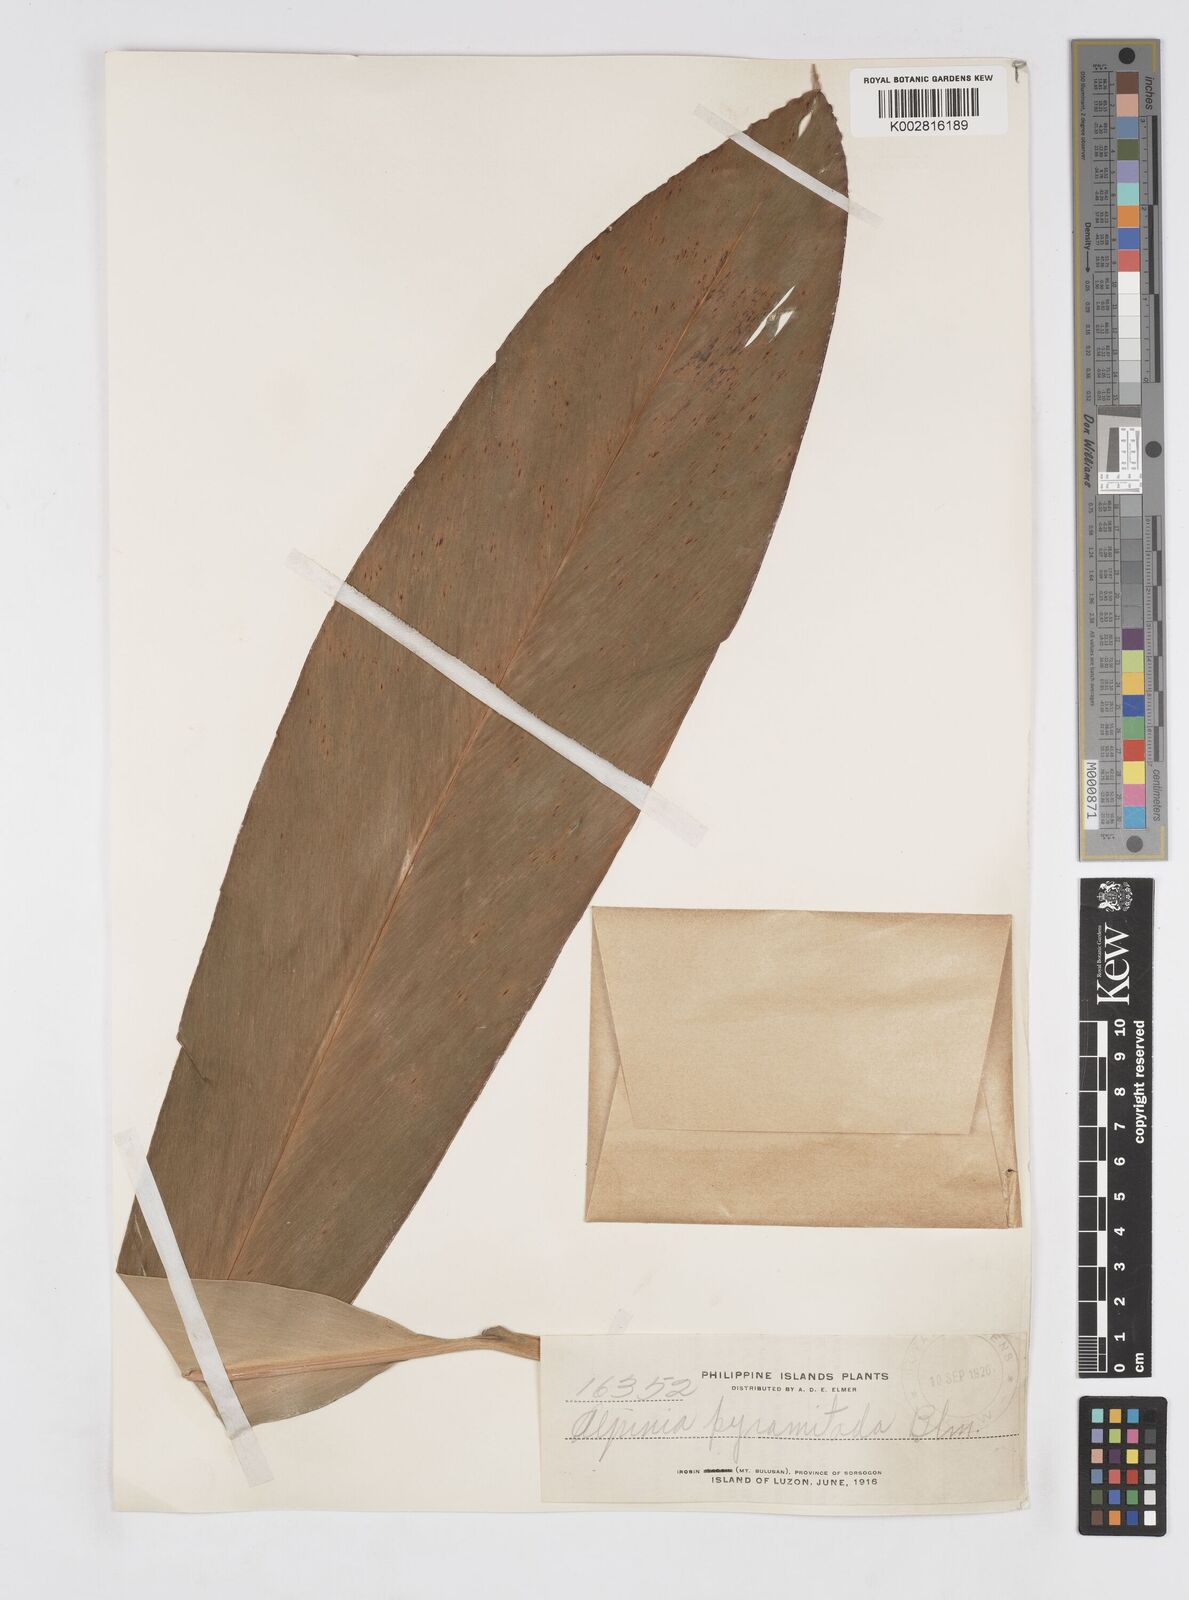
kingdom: Plantae
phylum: Tracheophyta
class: Liliopsida
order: Zingiberales
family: Zingiberaceae
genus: Alpinia
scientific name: Alpinia galanga
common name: Siamese-ginger
